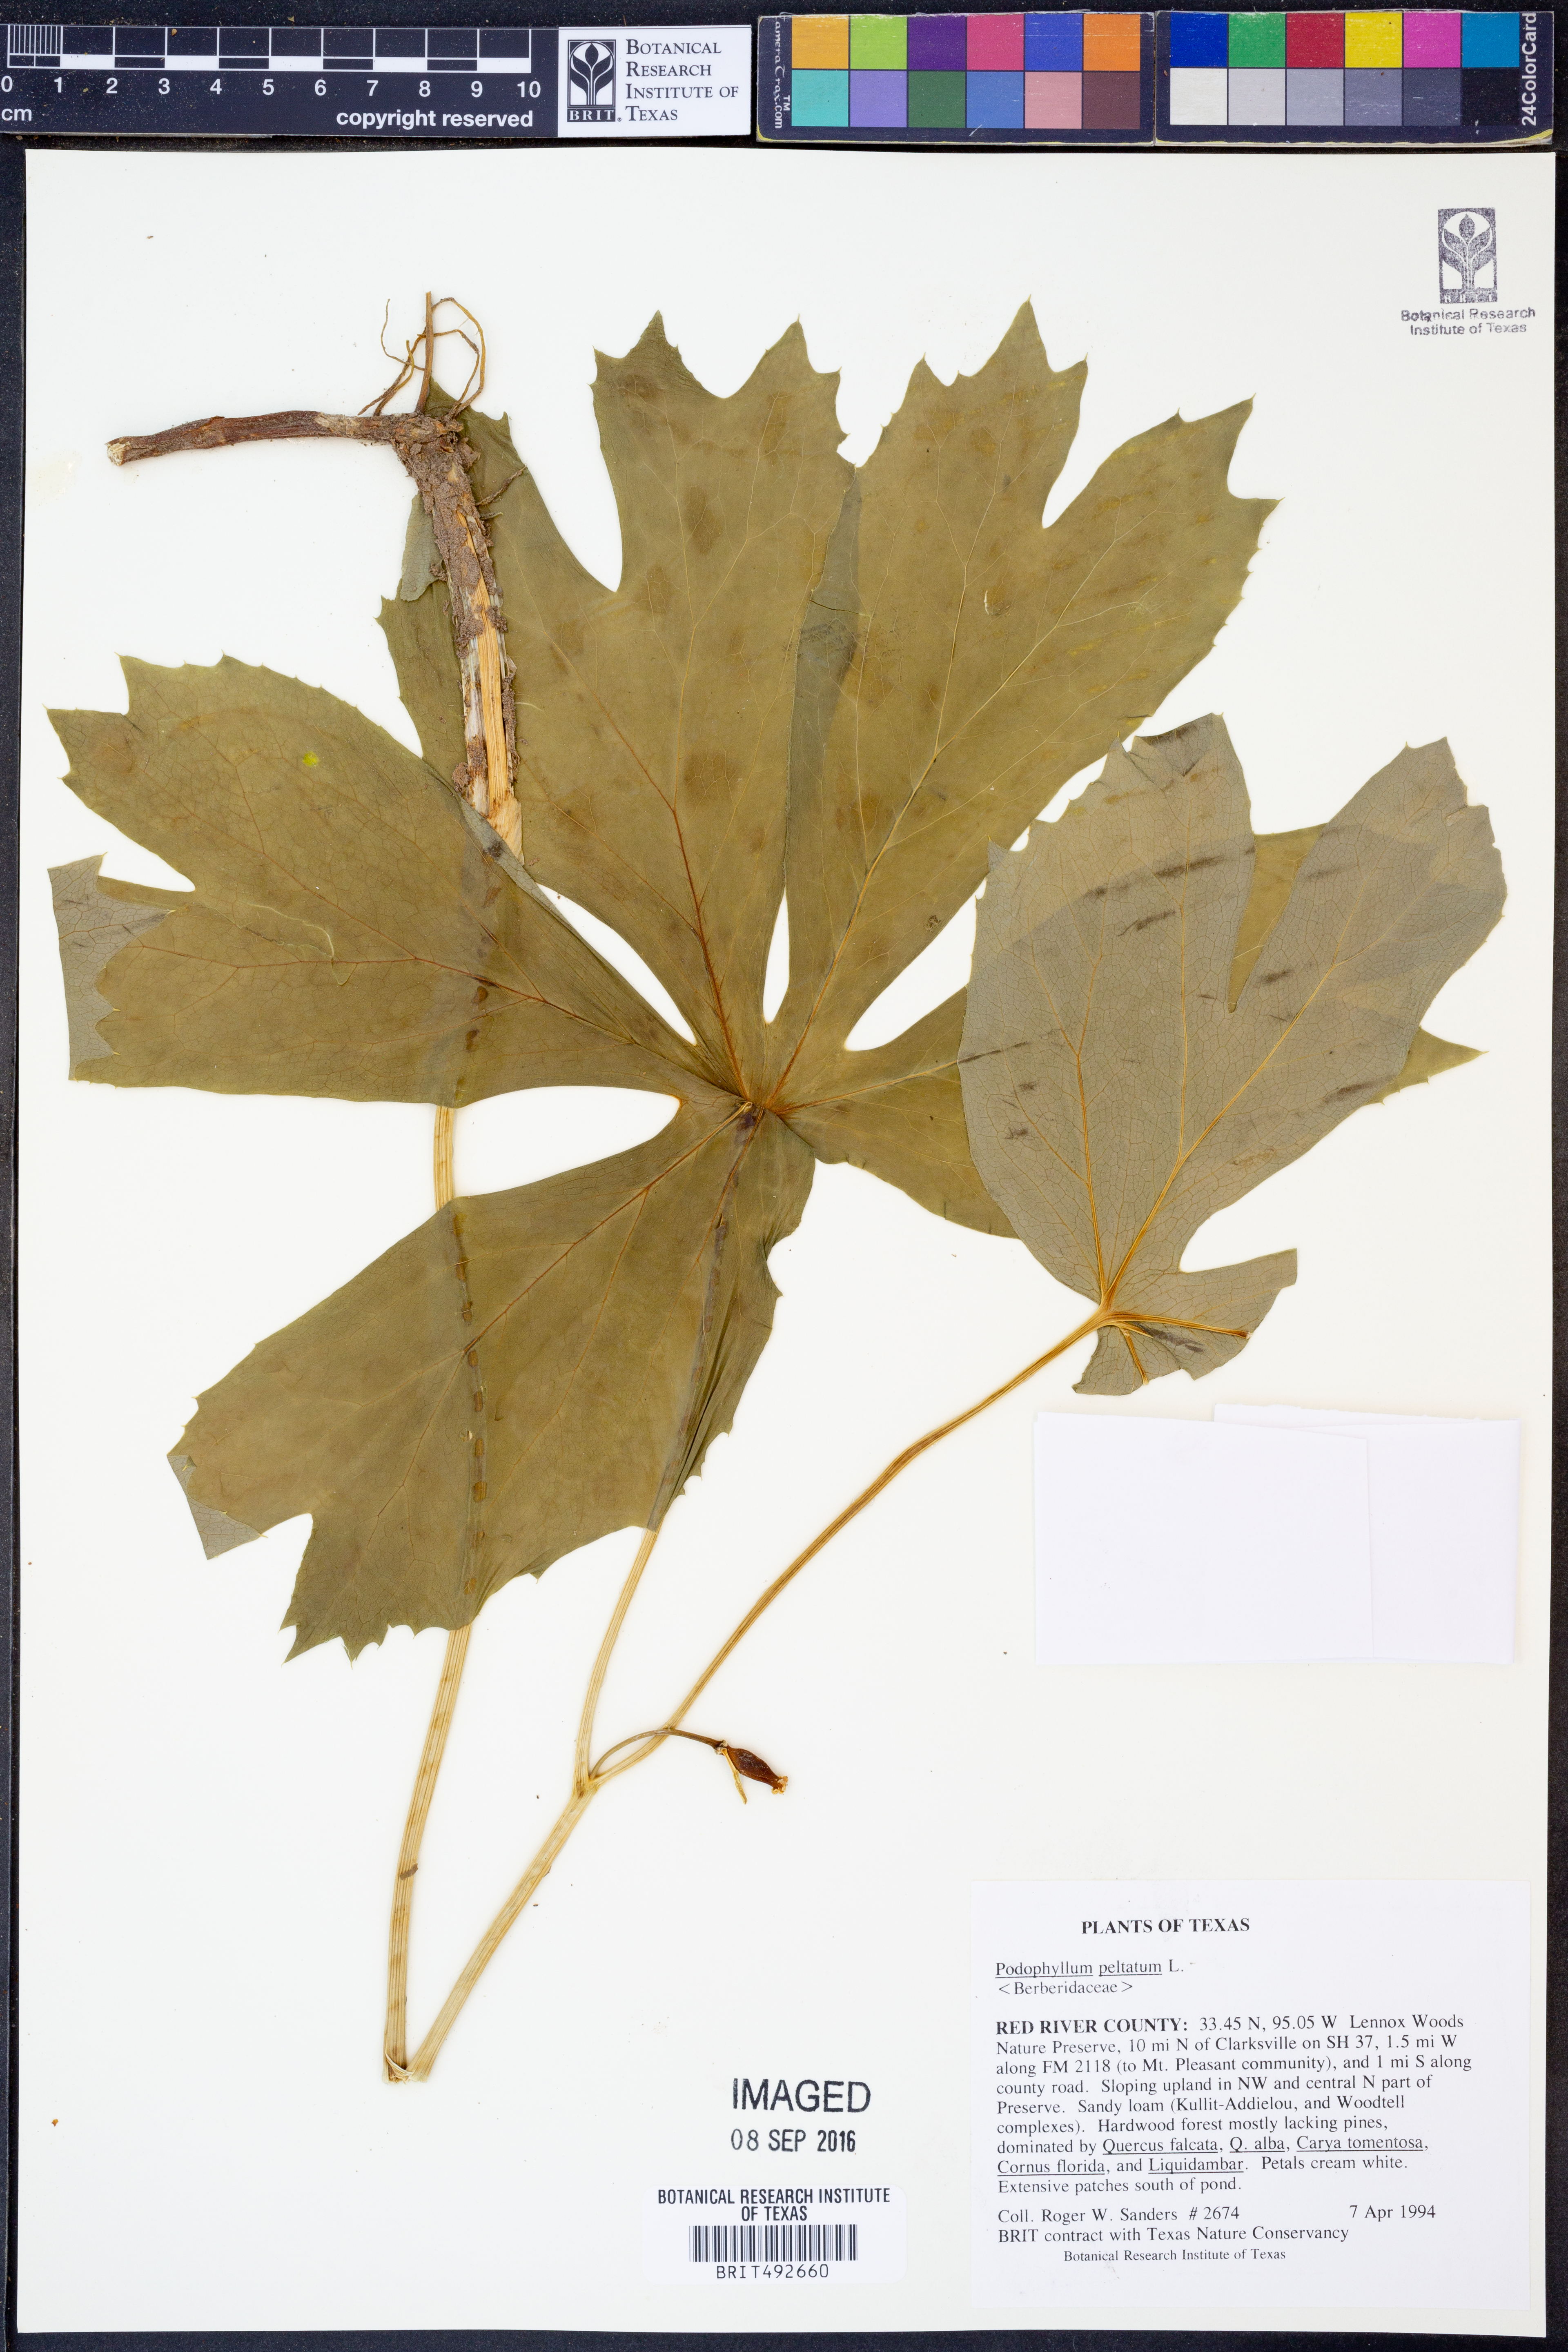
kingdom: Plantae
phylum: Tracheophyta
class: Magnoliopsida
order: Ranunculales
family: Berberidaceae
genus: Podophyllum
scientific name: Podophyllum peltatum
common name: Wild mandrake
